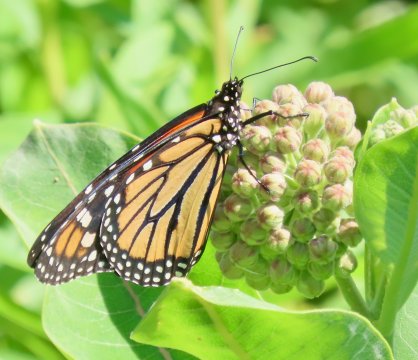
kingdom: Animalia
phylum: Arthropoda
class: Insecta
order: Lepidoptera
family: Nymphalidae
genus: Danaus
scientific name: Danaus plexippus
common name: Monarch
